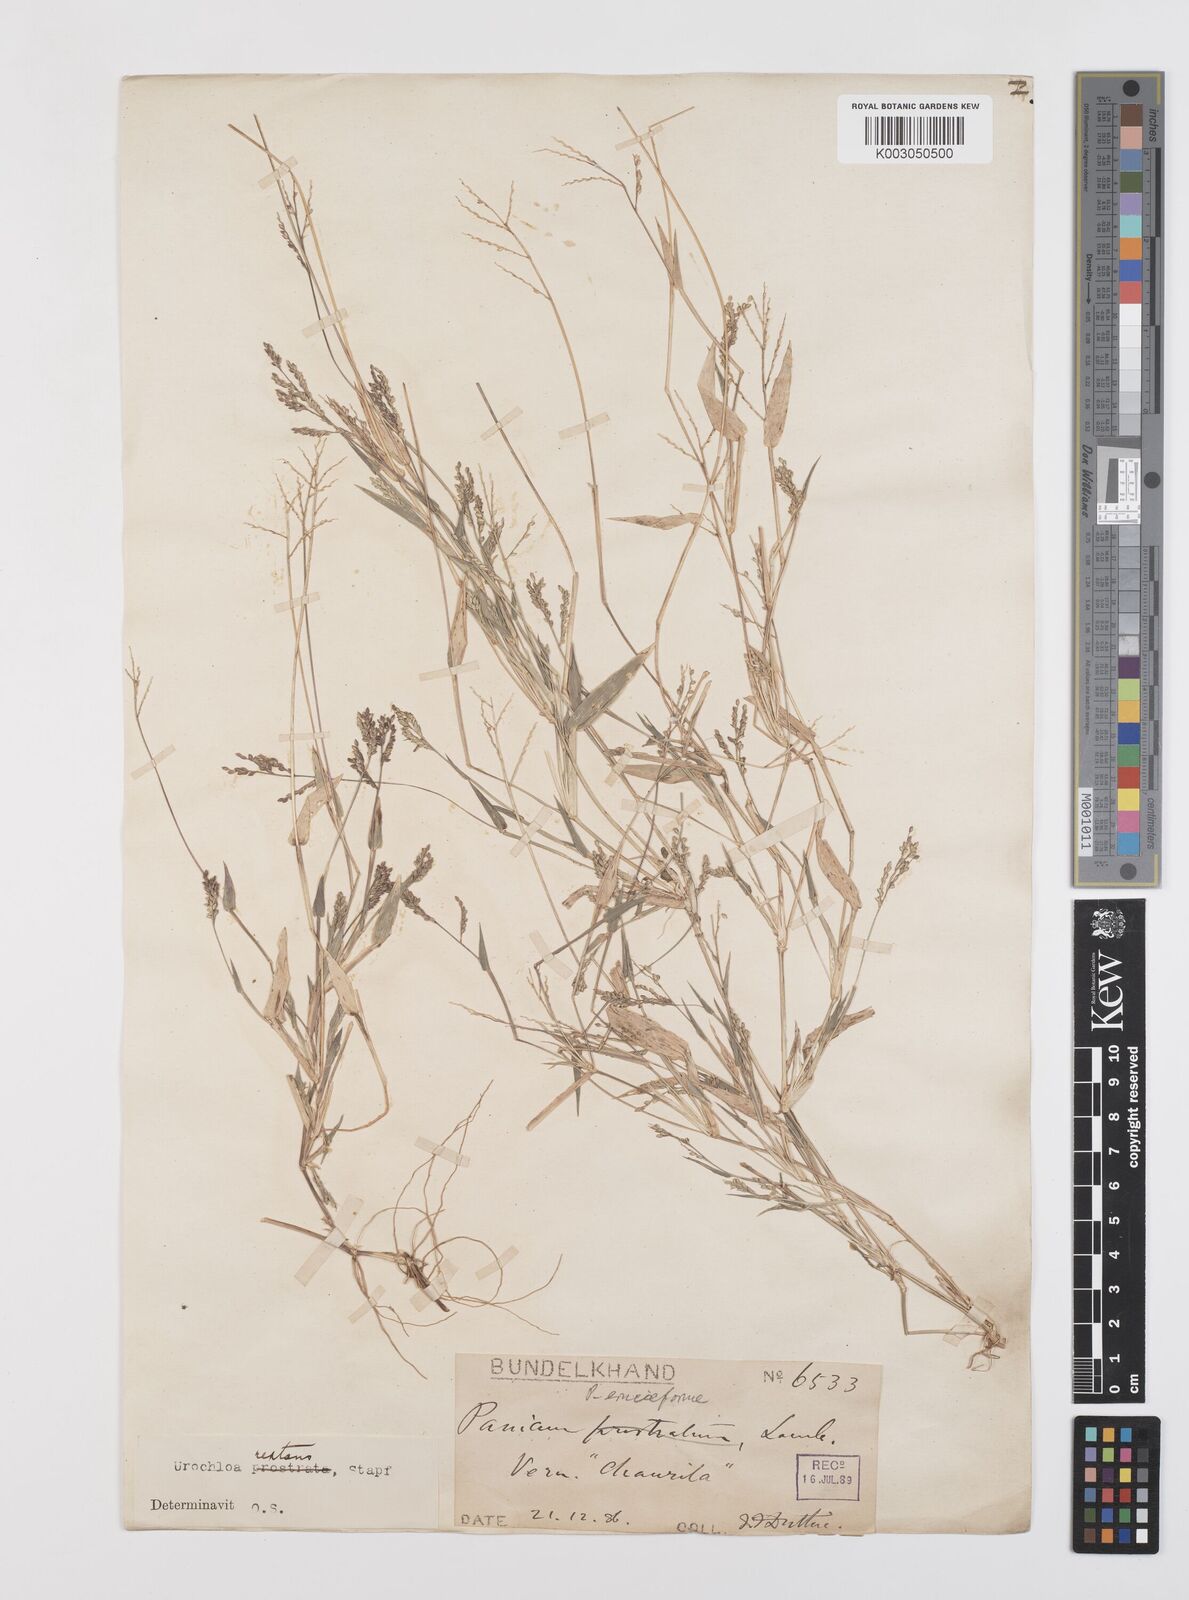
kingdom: Plantae
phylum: Tracheophyta
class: Liliopsida
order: Poales
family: Poaceae
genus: Urochloa
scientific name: Urochloa reptans
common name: Sprawling signalgrass
